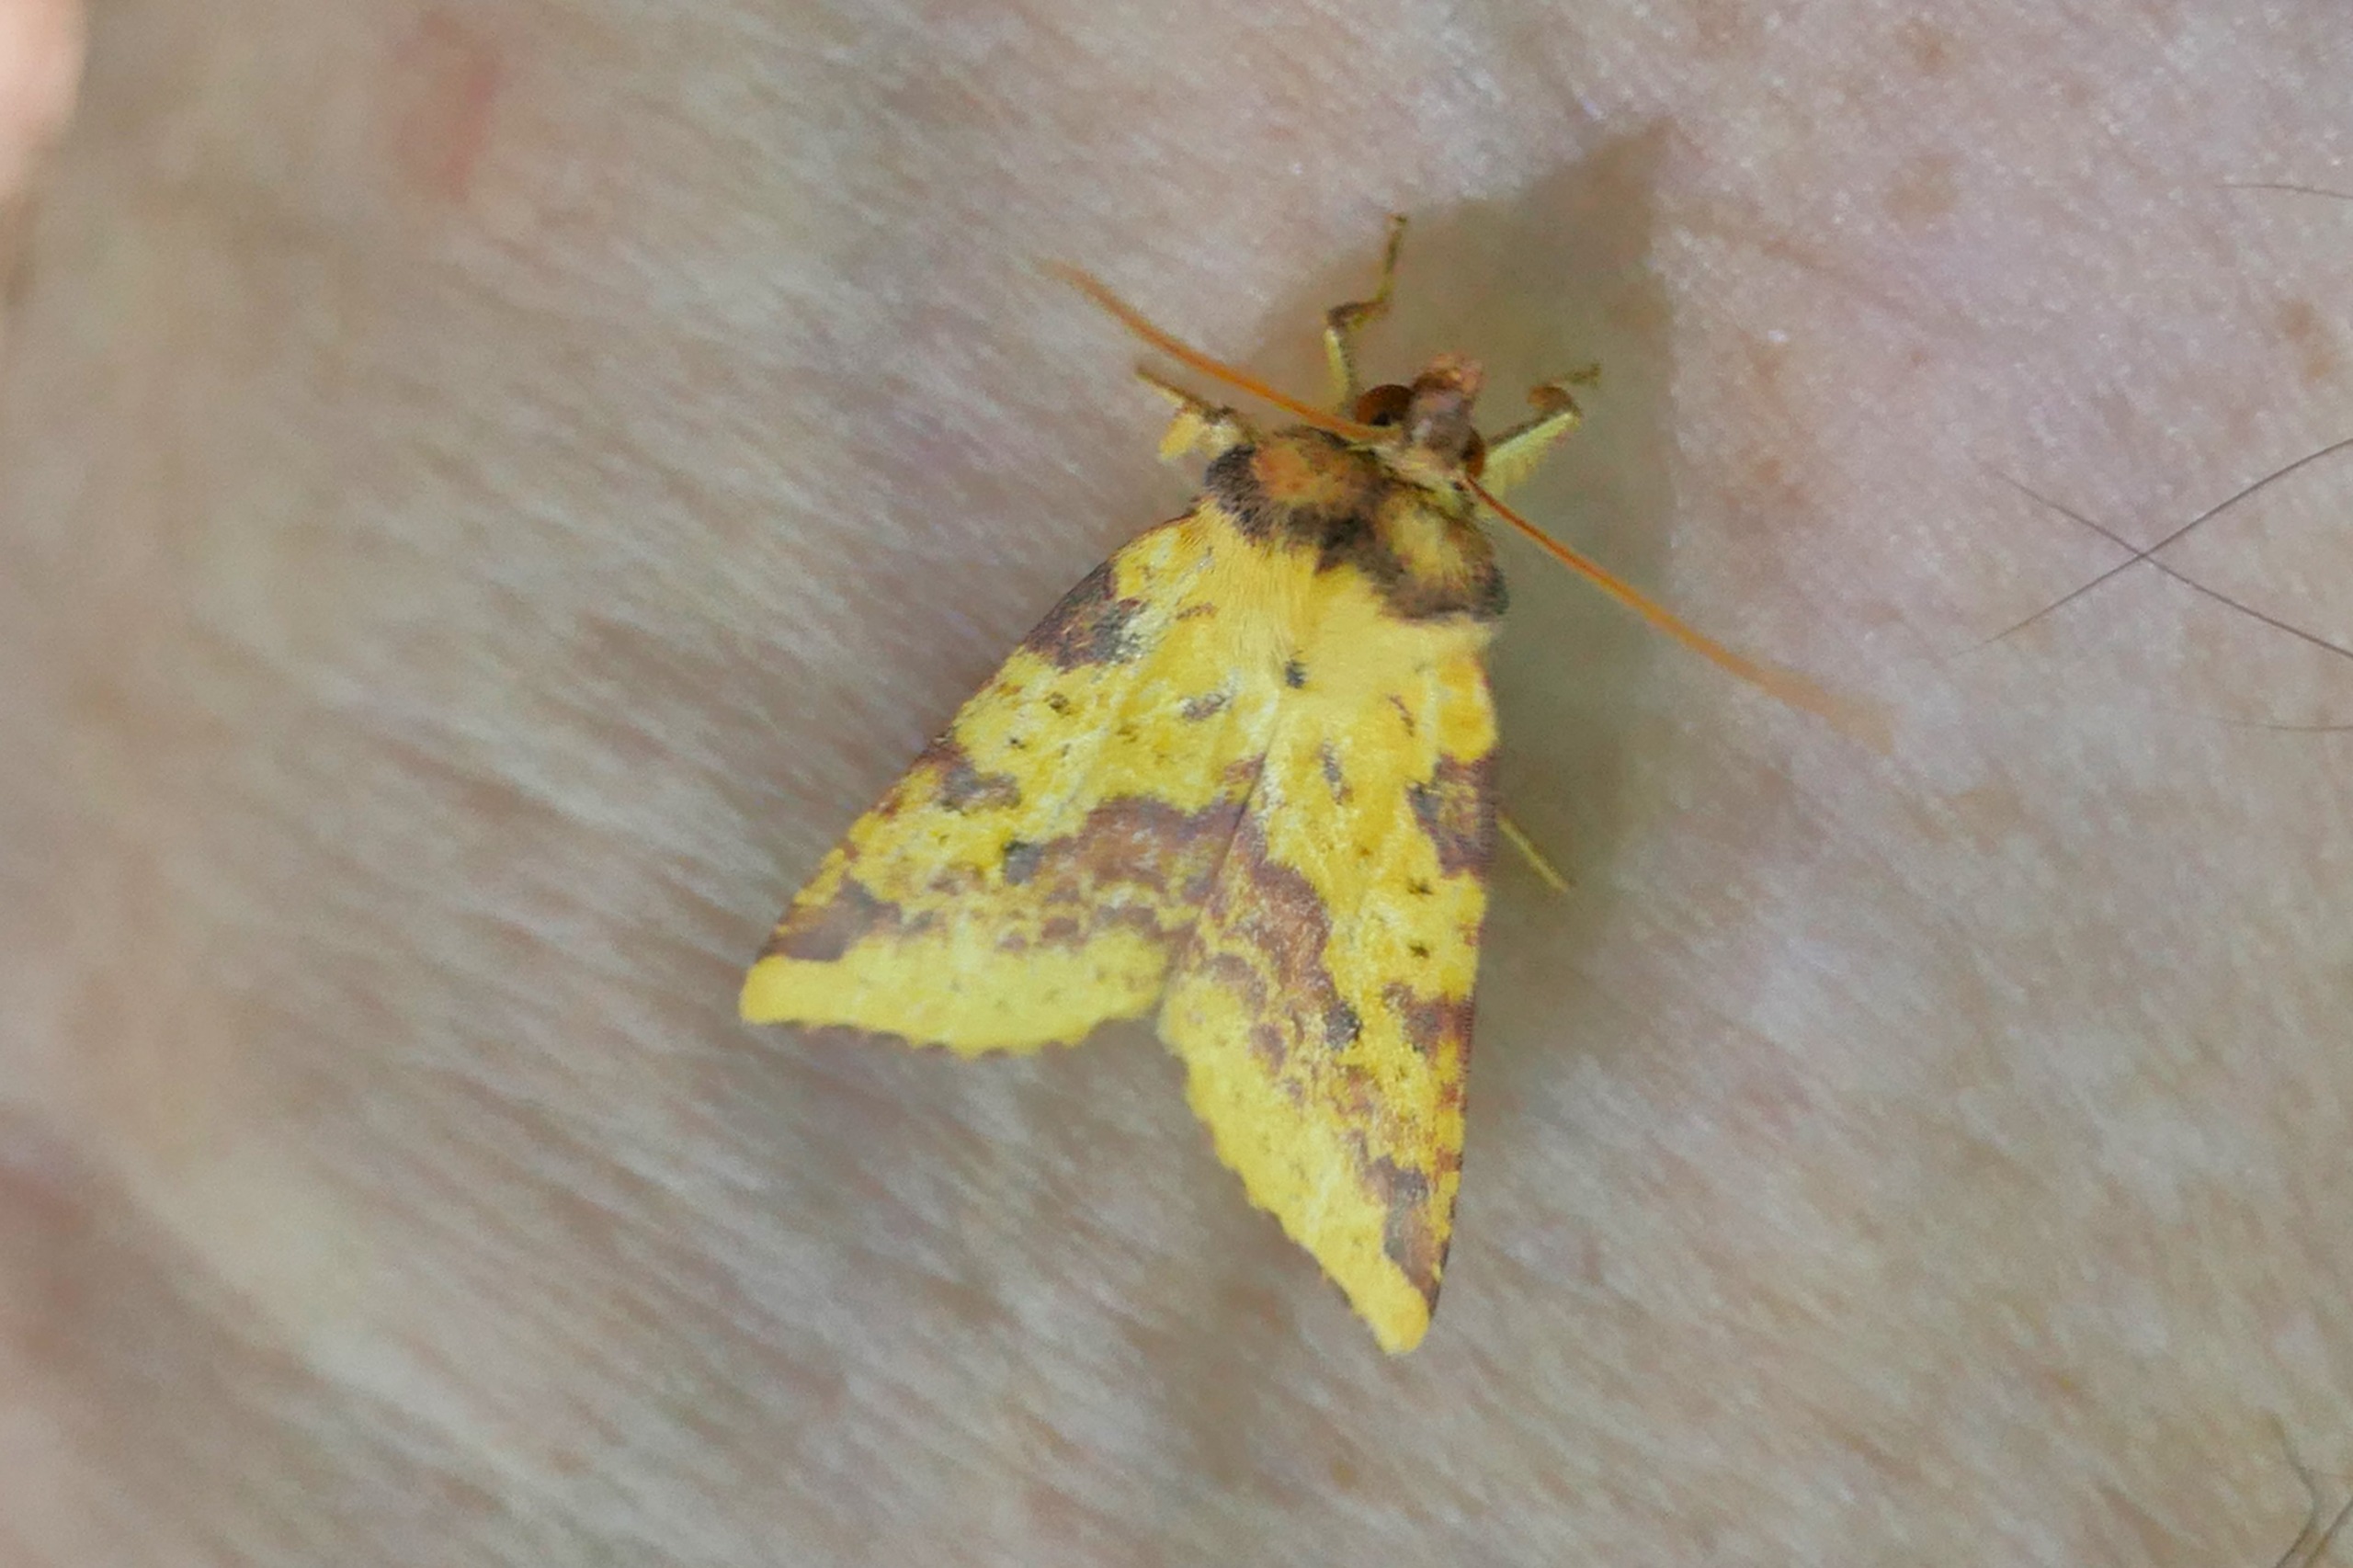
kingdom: Animalia
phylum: Arthropoda
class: Insecta
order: Lepidoptera
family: Noctuidae
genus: Xanthia
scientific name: Xanthia togata
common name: Toga-septemberugle
